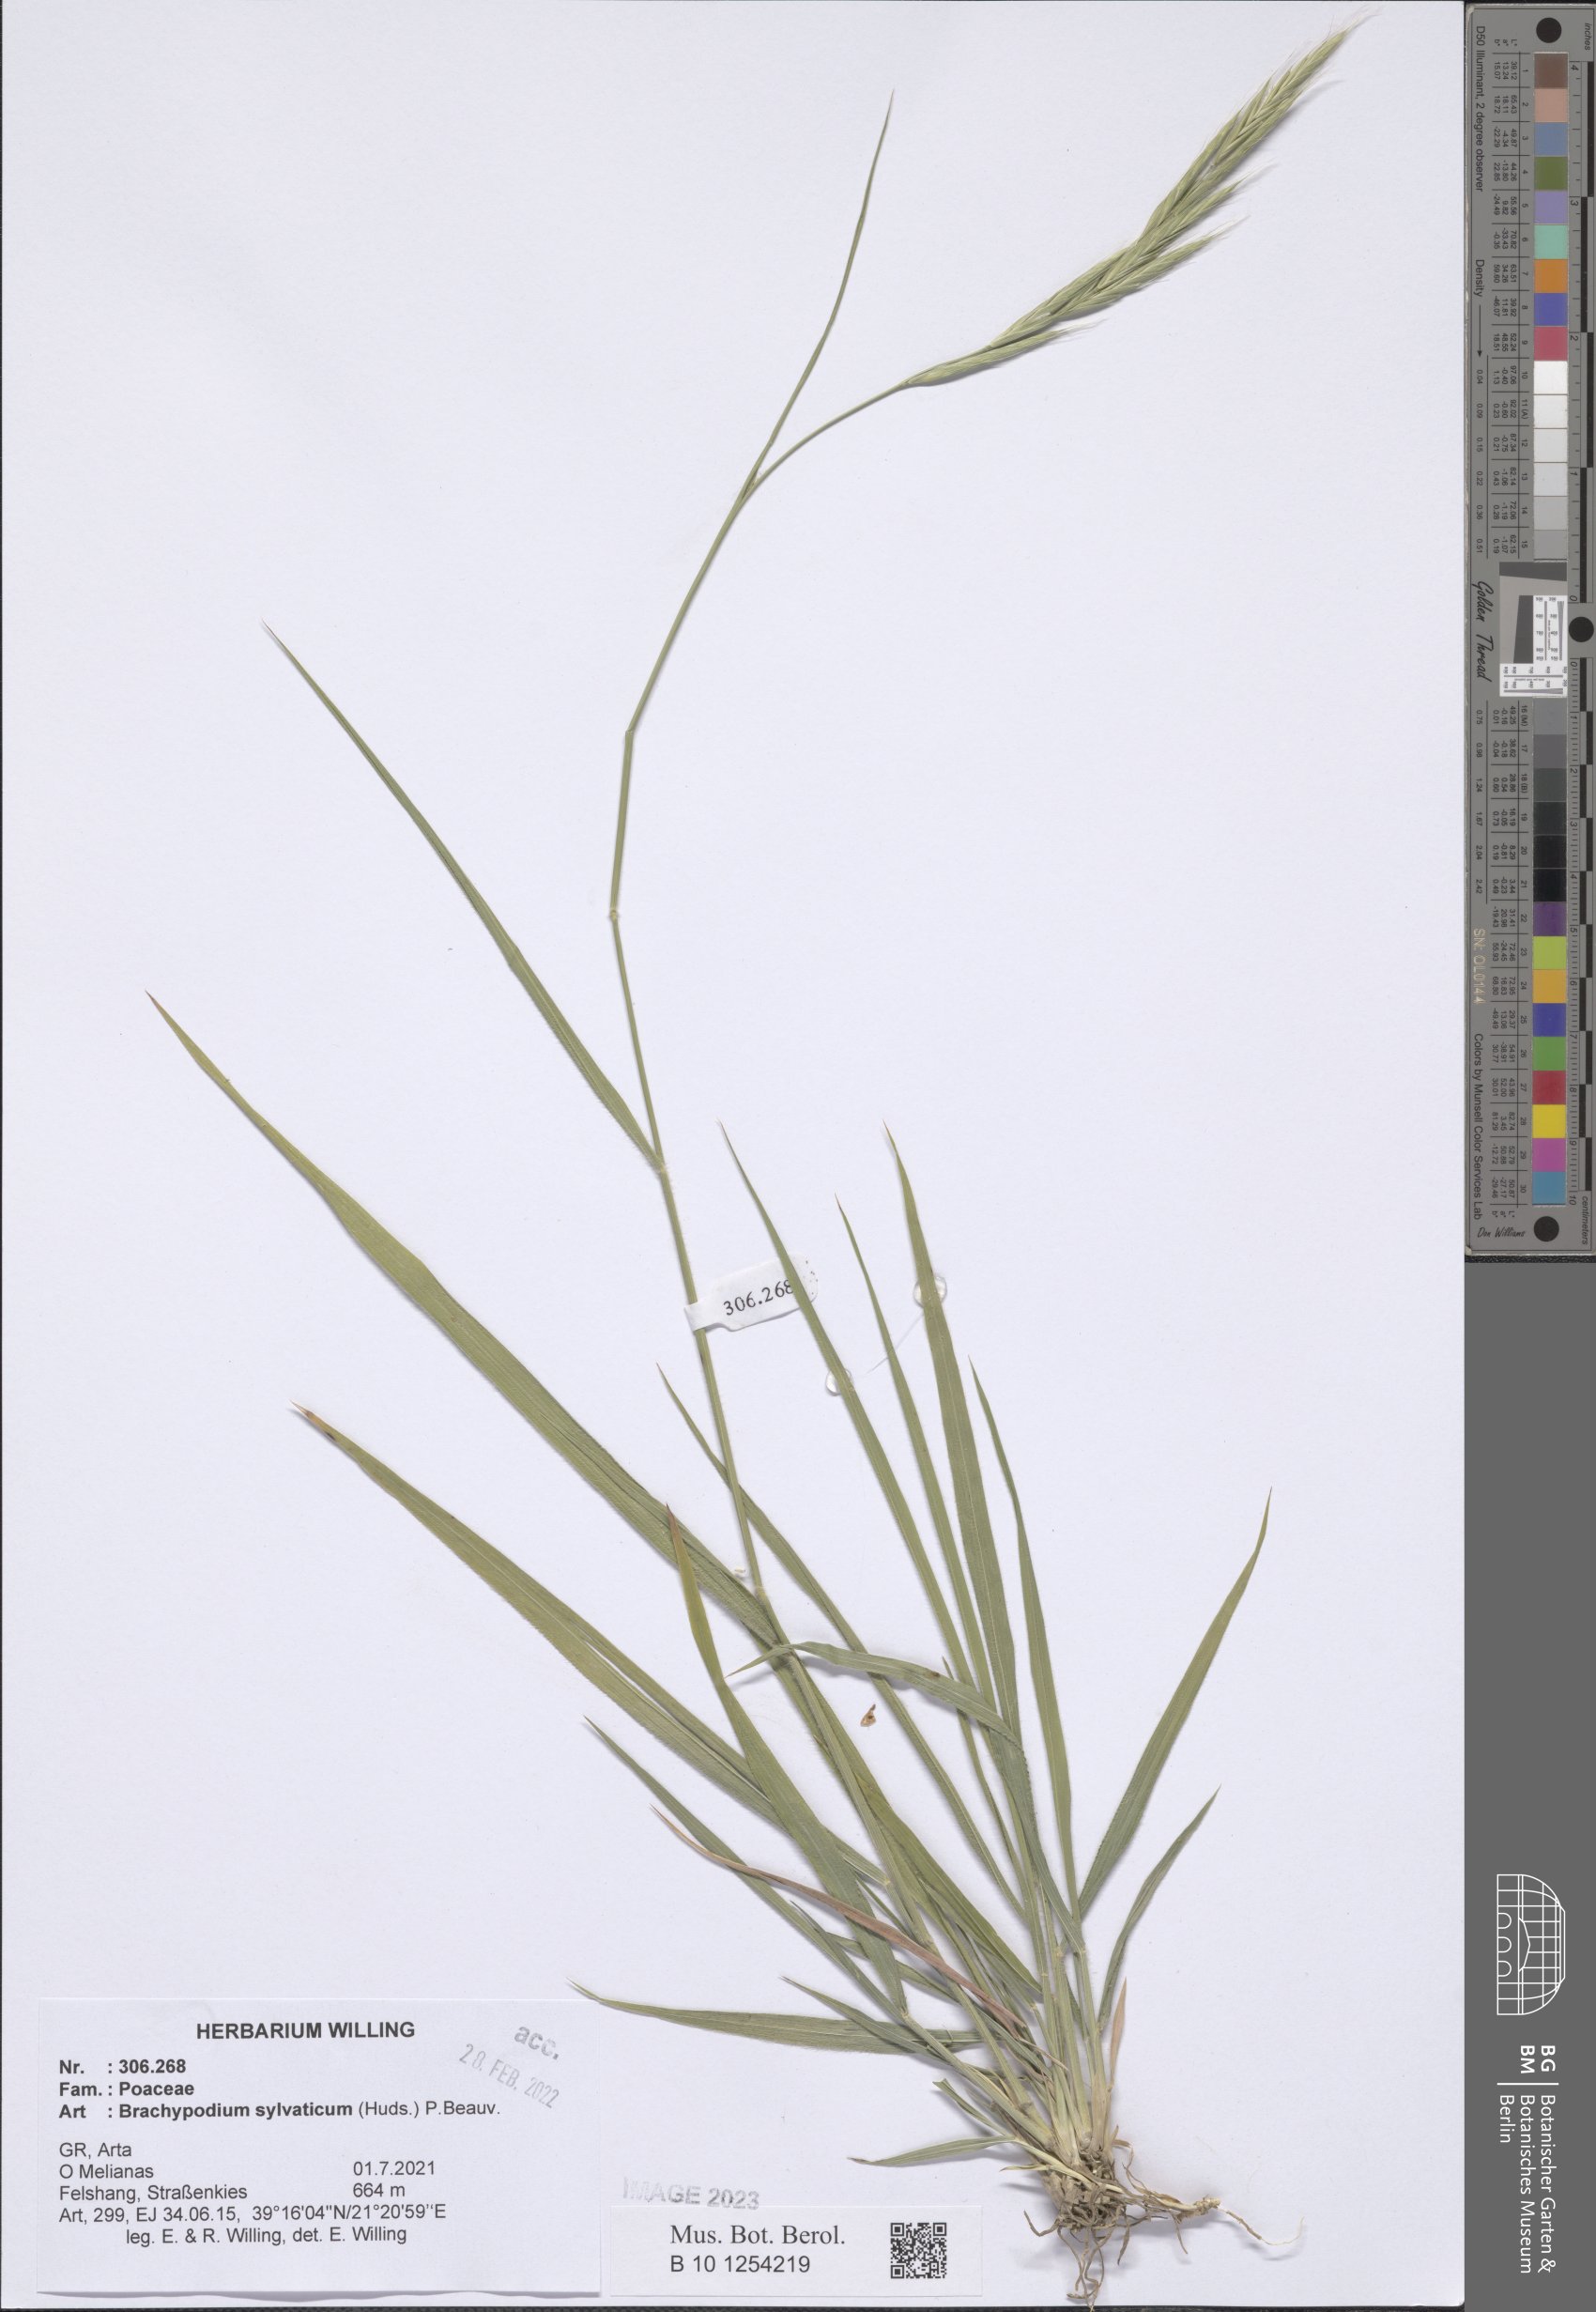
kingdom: Plantae
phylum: Tracheophyta
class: Liliopsida
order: Poales
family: Poaceae
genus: Brachypodium
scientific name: Brachypodium sylvaticum
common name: False-brome
